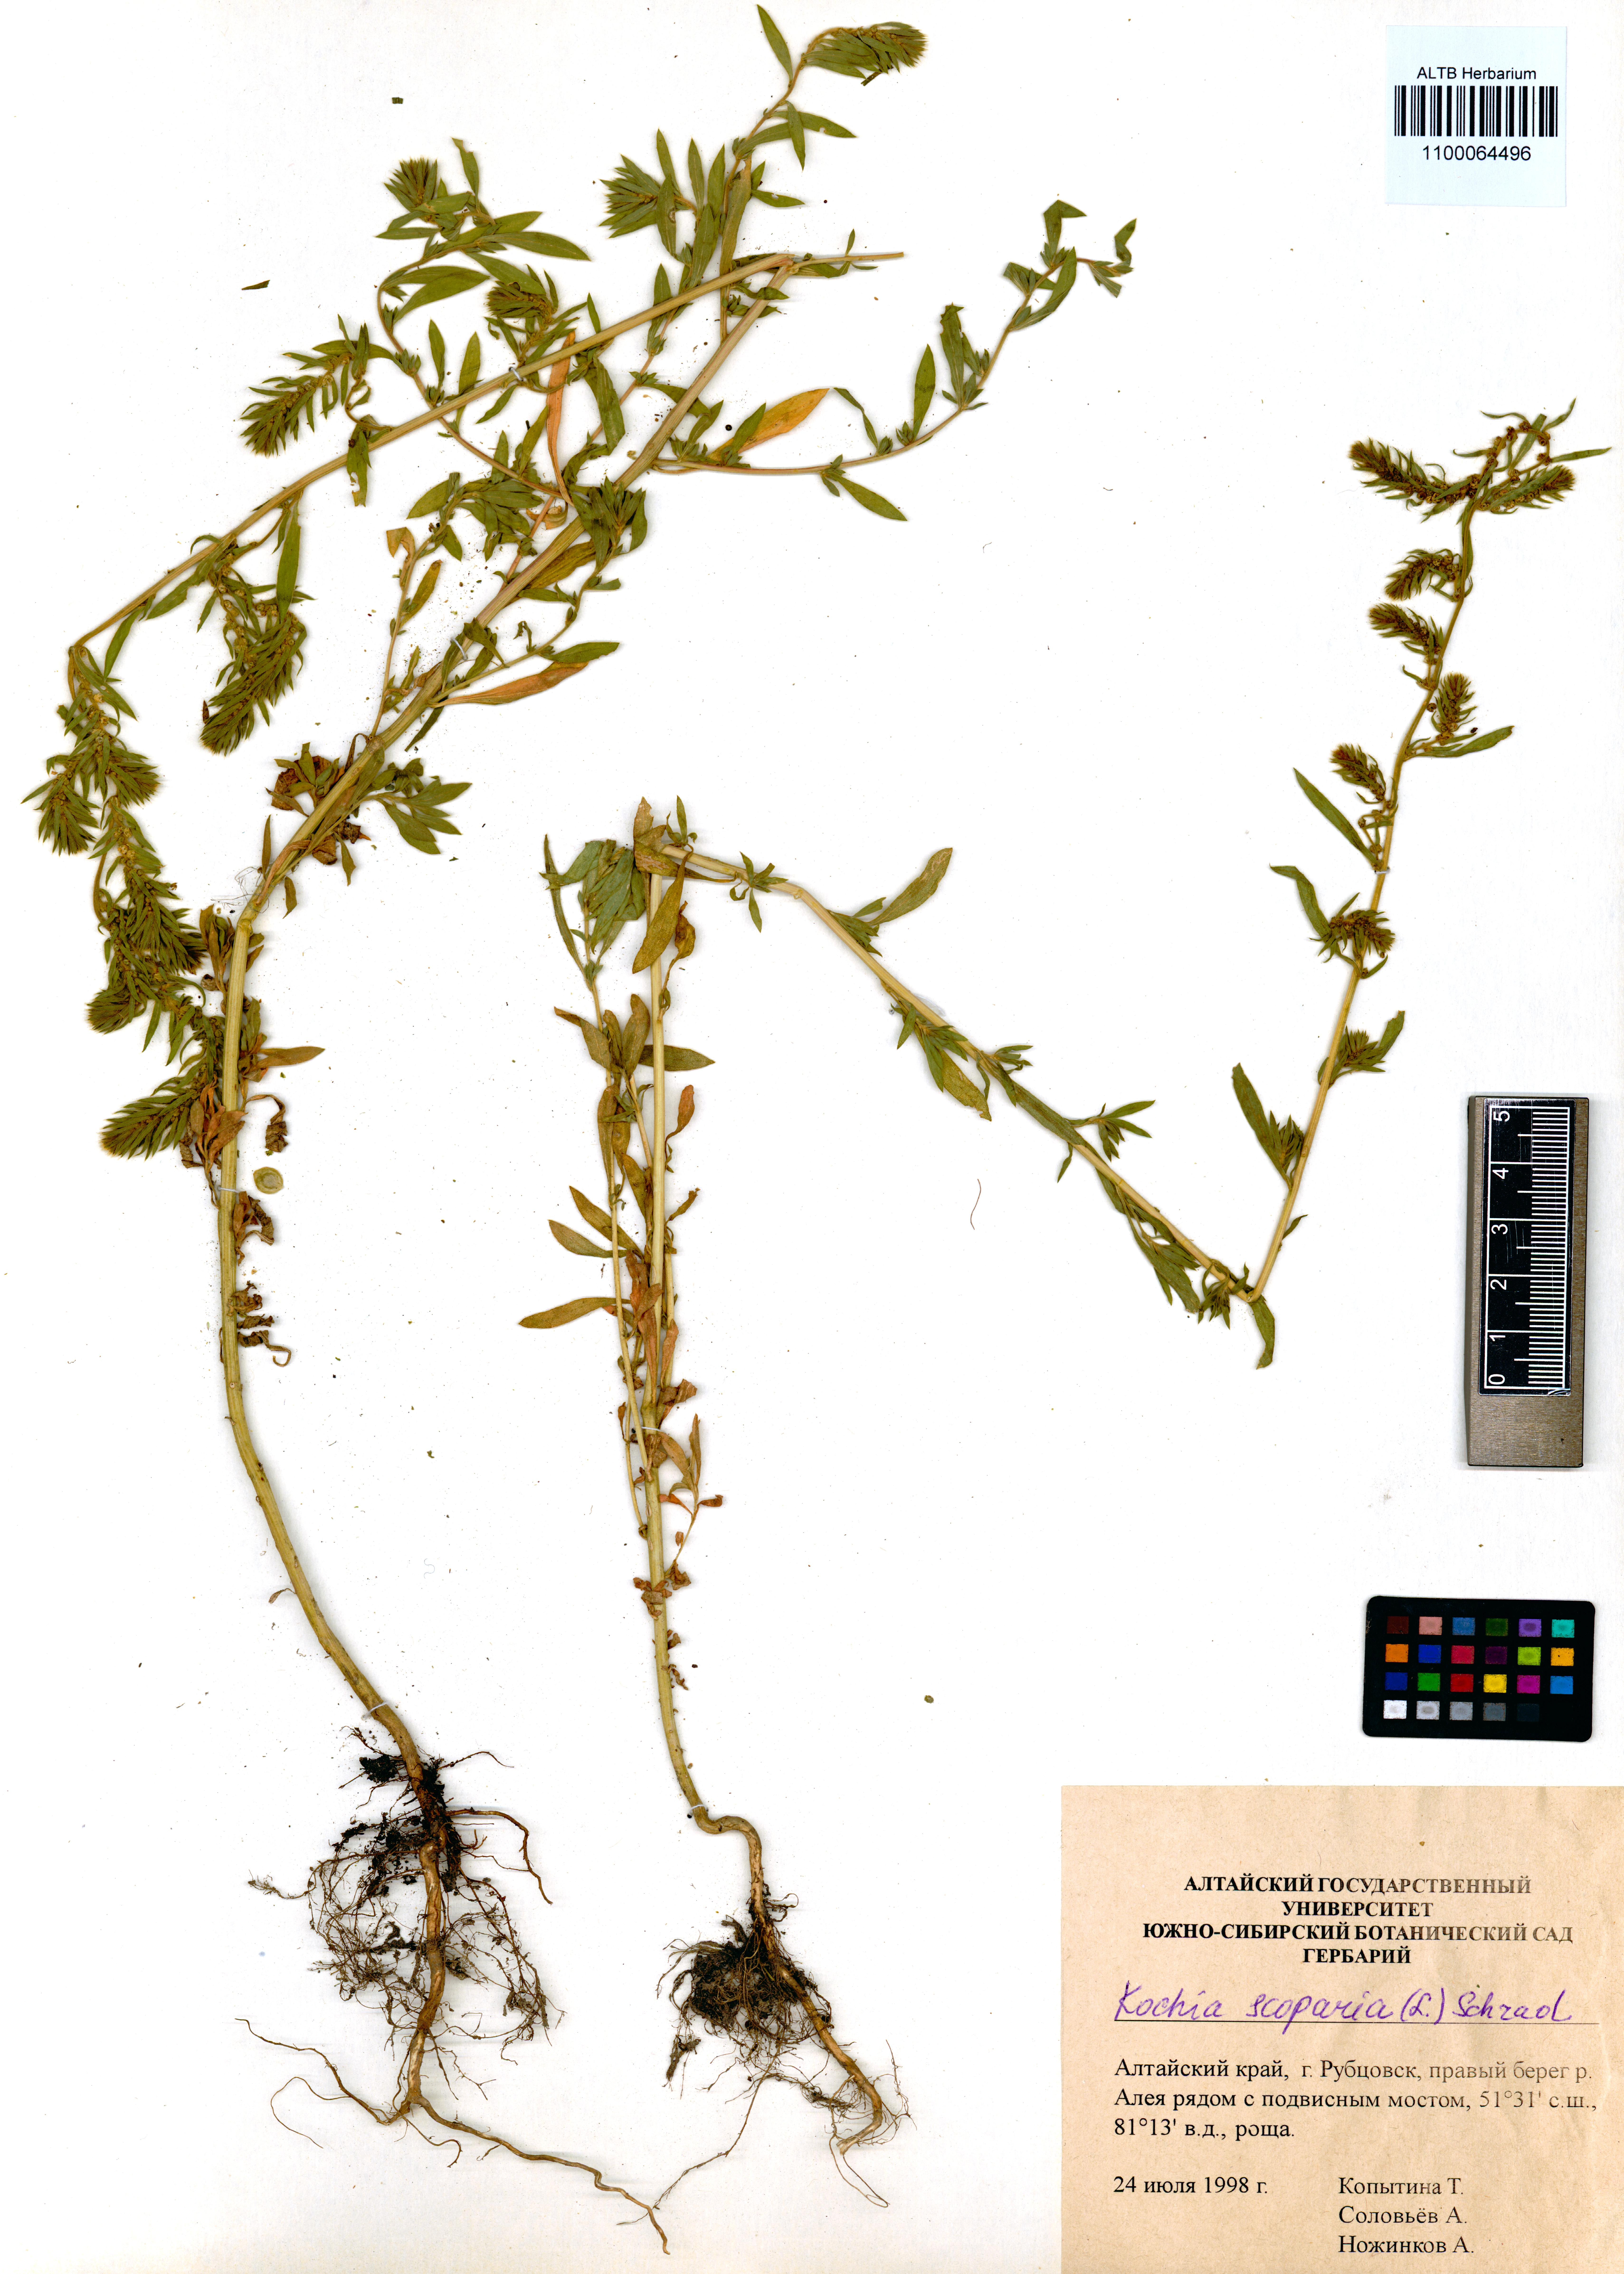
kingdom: Plantae
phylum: Tracheophyta
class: Magnoliopsida
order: Caryophyllales
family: Amaranthaceae
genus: Bassia
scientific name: Bassia scoparia
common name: Belvedere
